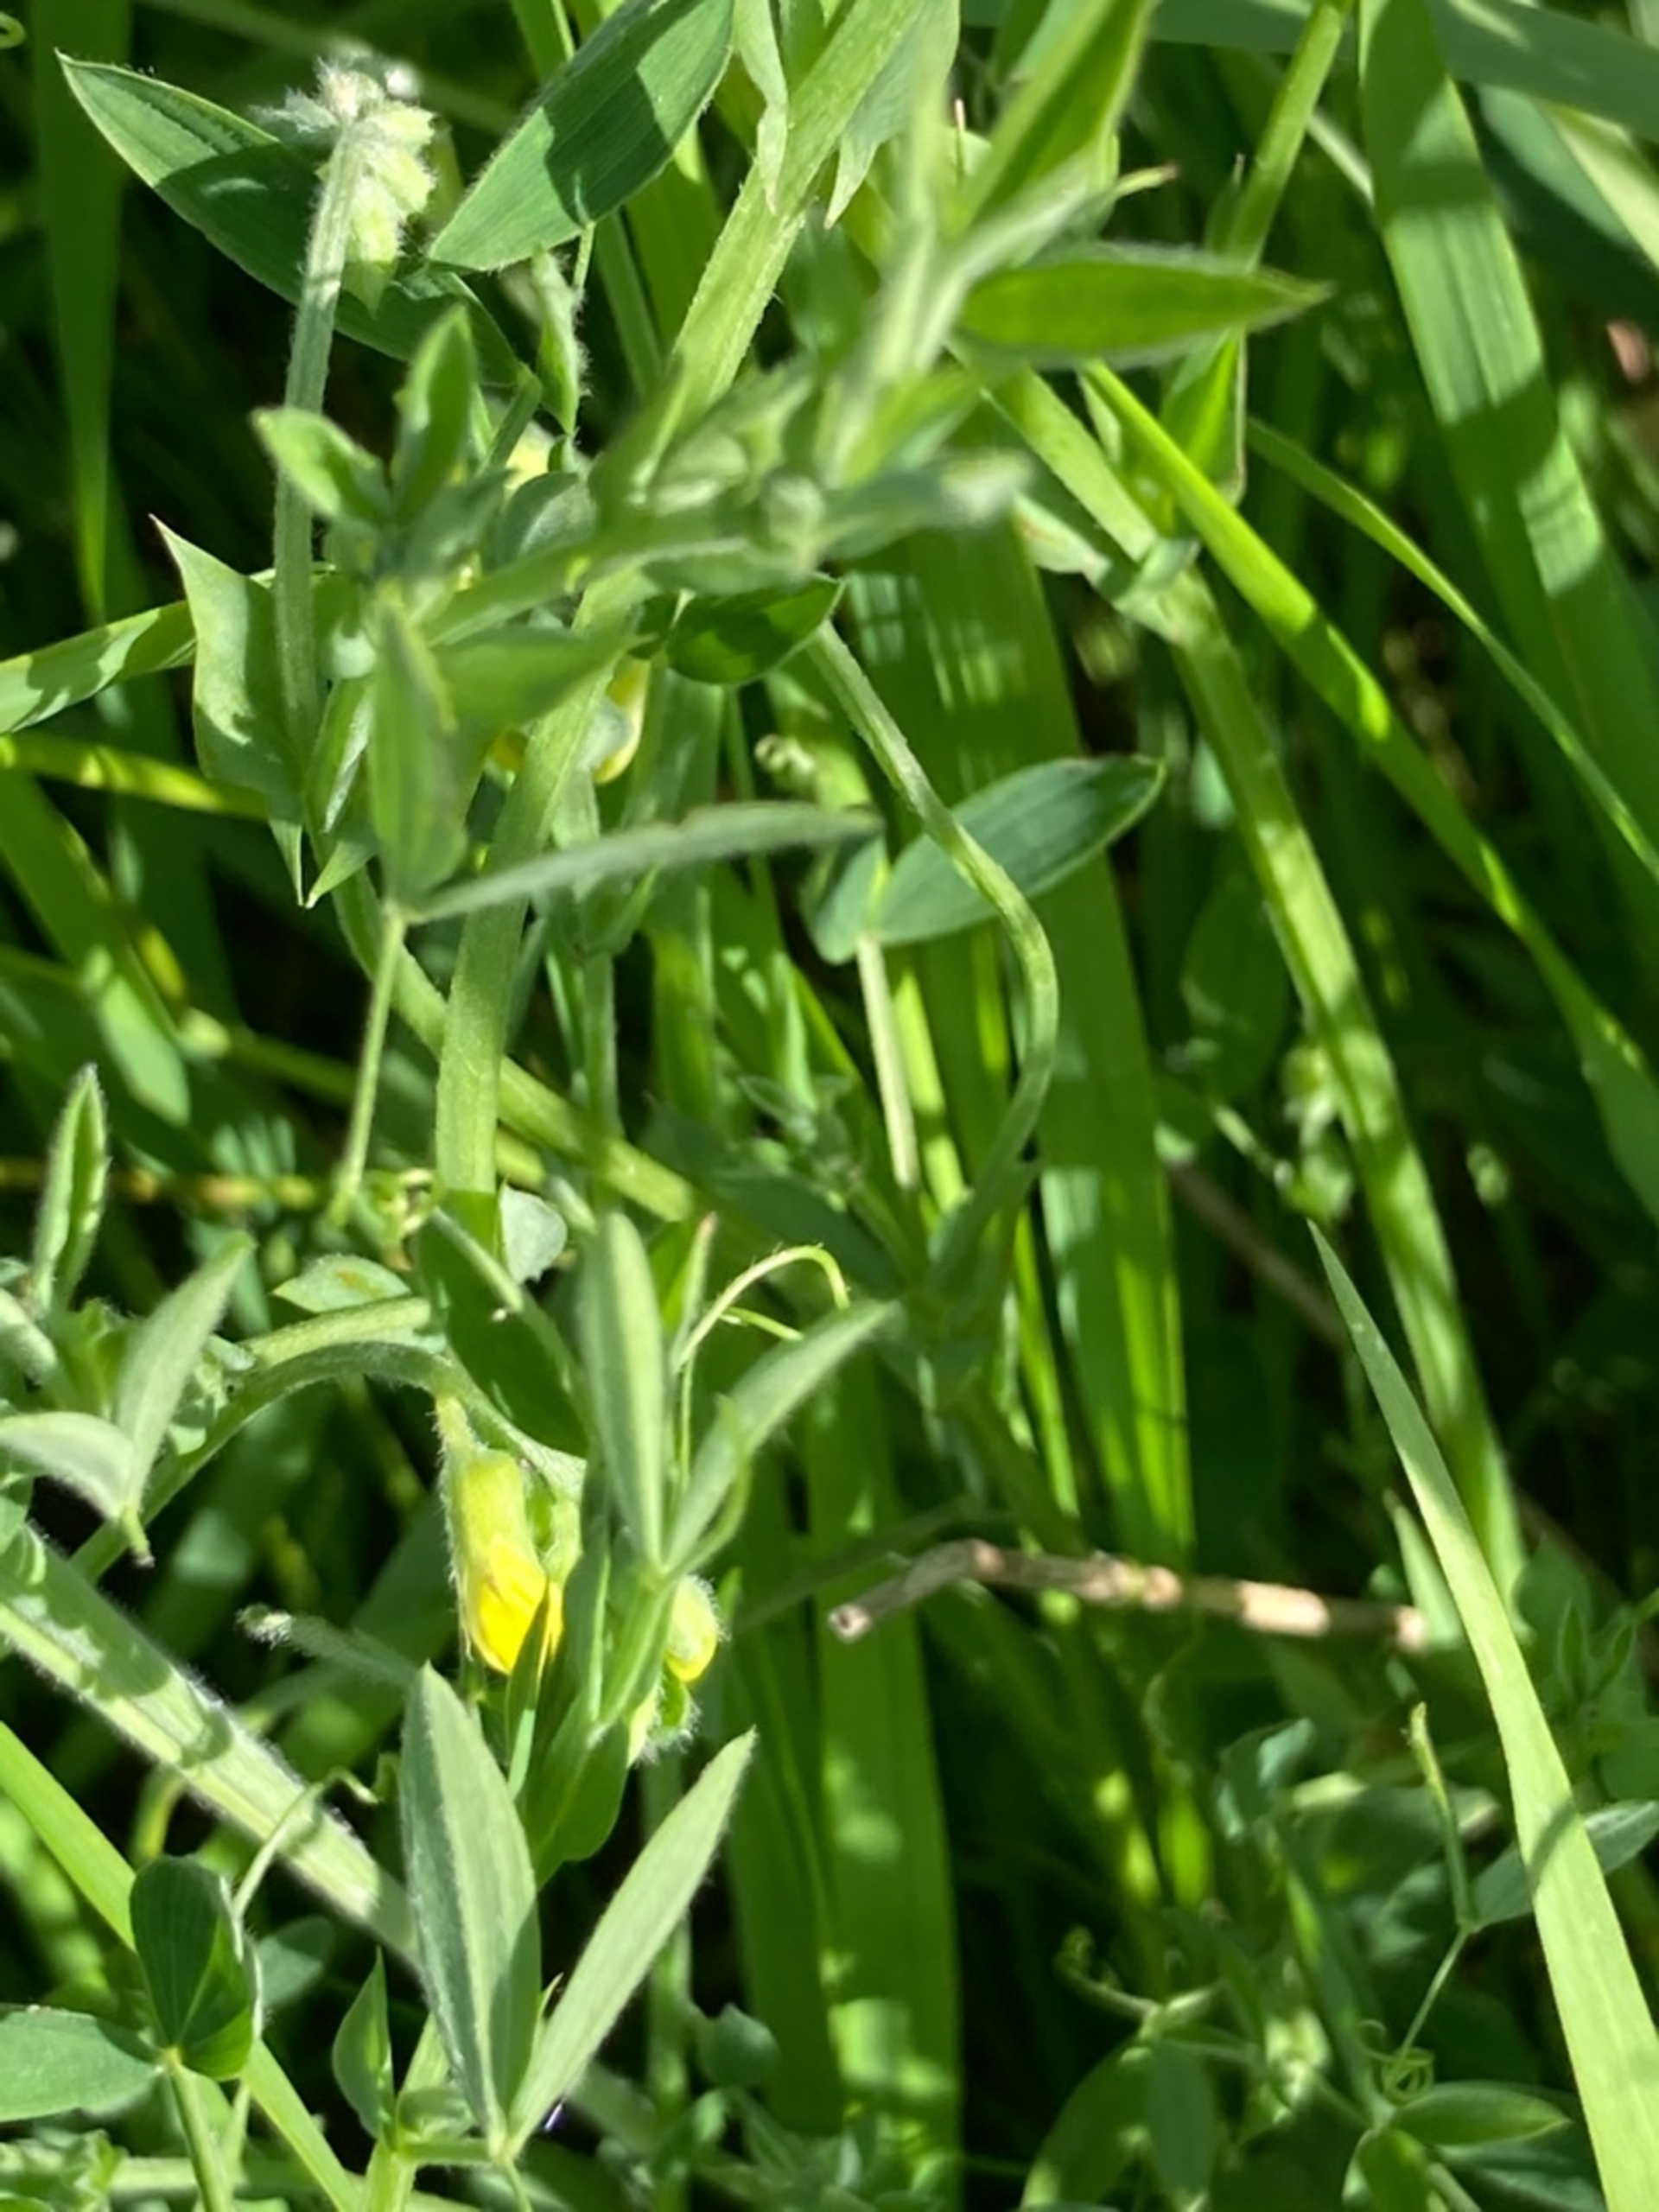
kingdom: Plantae
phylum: Tracheophyta
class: Magnoliopsida
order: Fabales
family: Fabaceae
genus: Lathyrus
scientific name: Lathyrus pratensis
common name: Gul fladbælg
